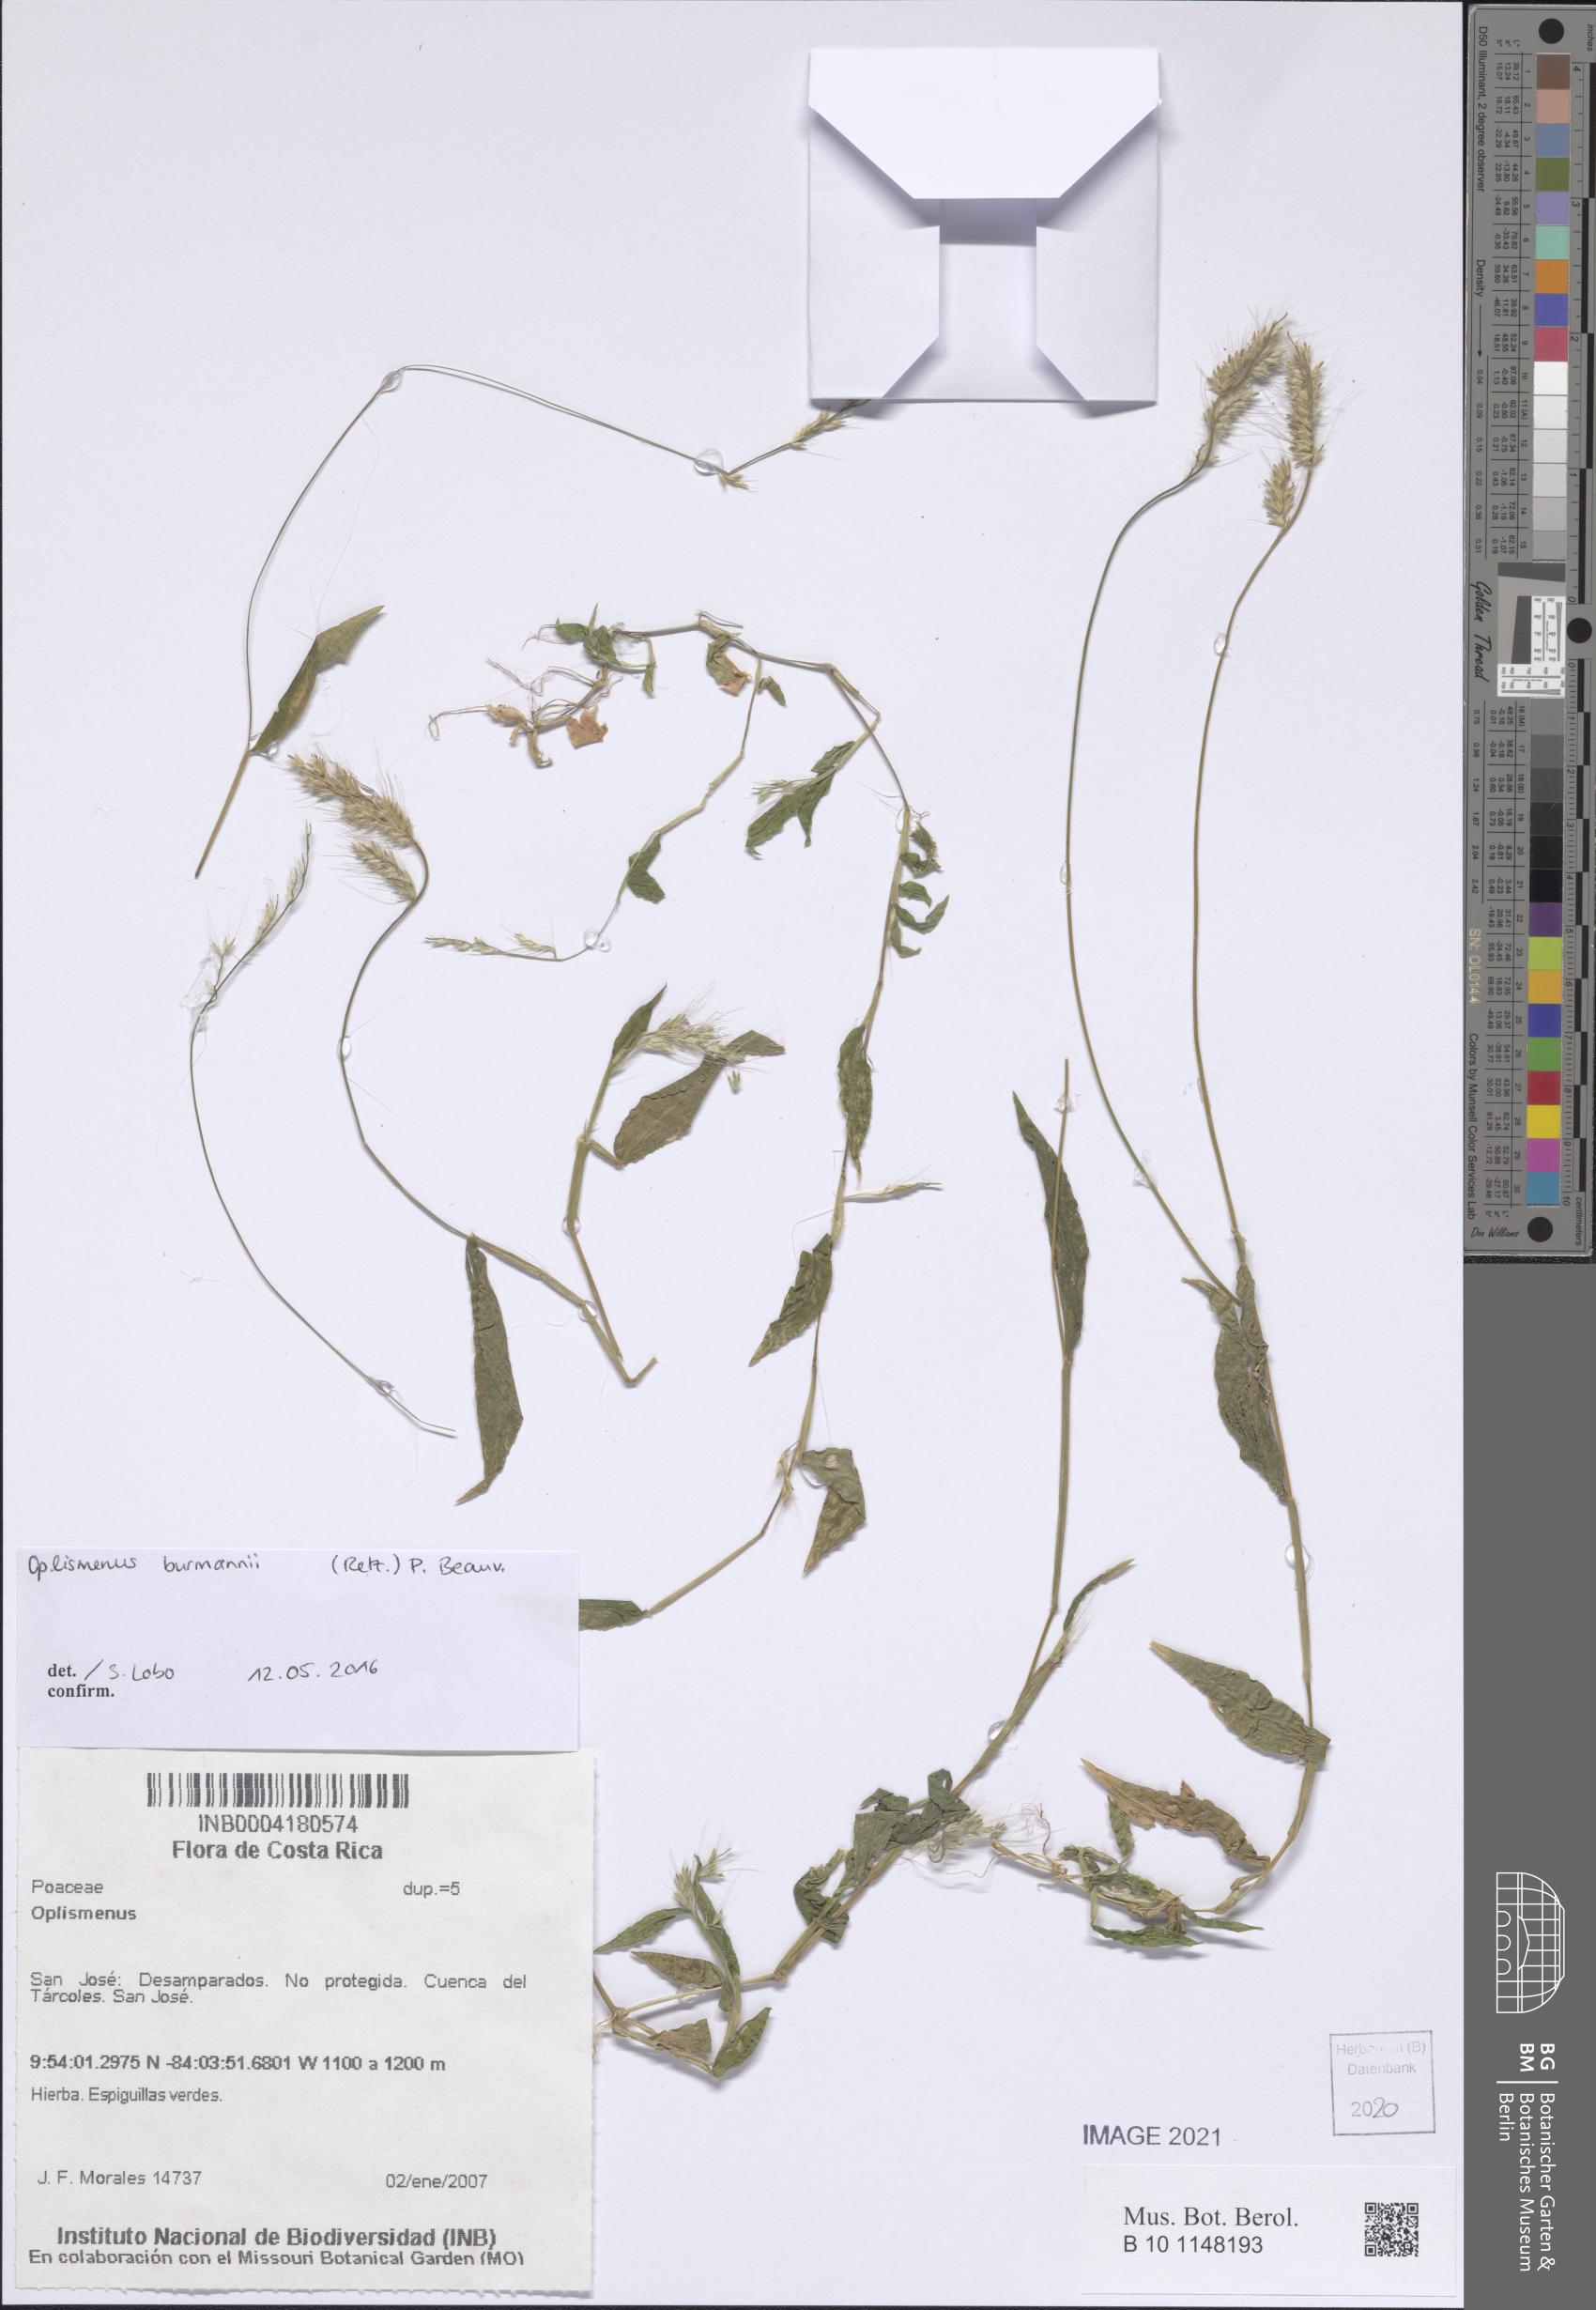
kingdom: Plantae
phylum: Tracheophyta
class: Liliopsida
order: Poales
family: Poaceae
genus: Oplismenus
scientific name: Oplismenus
